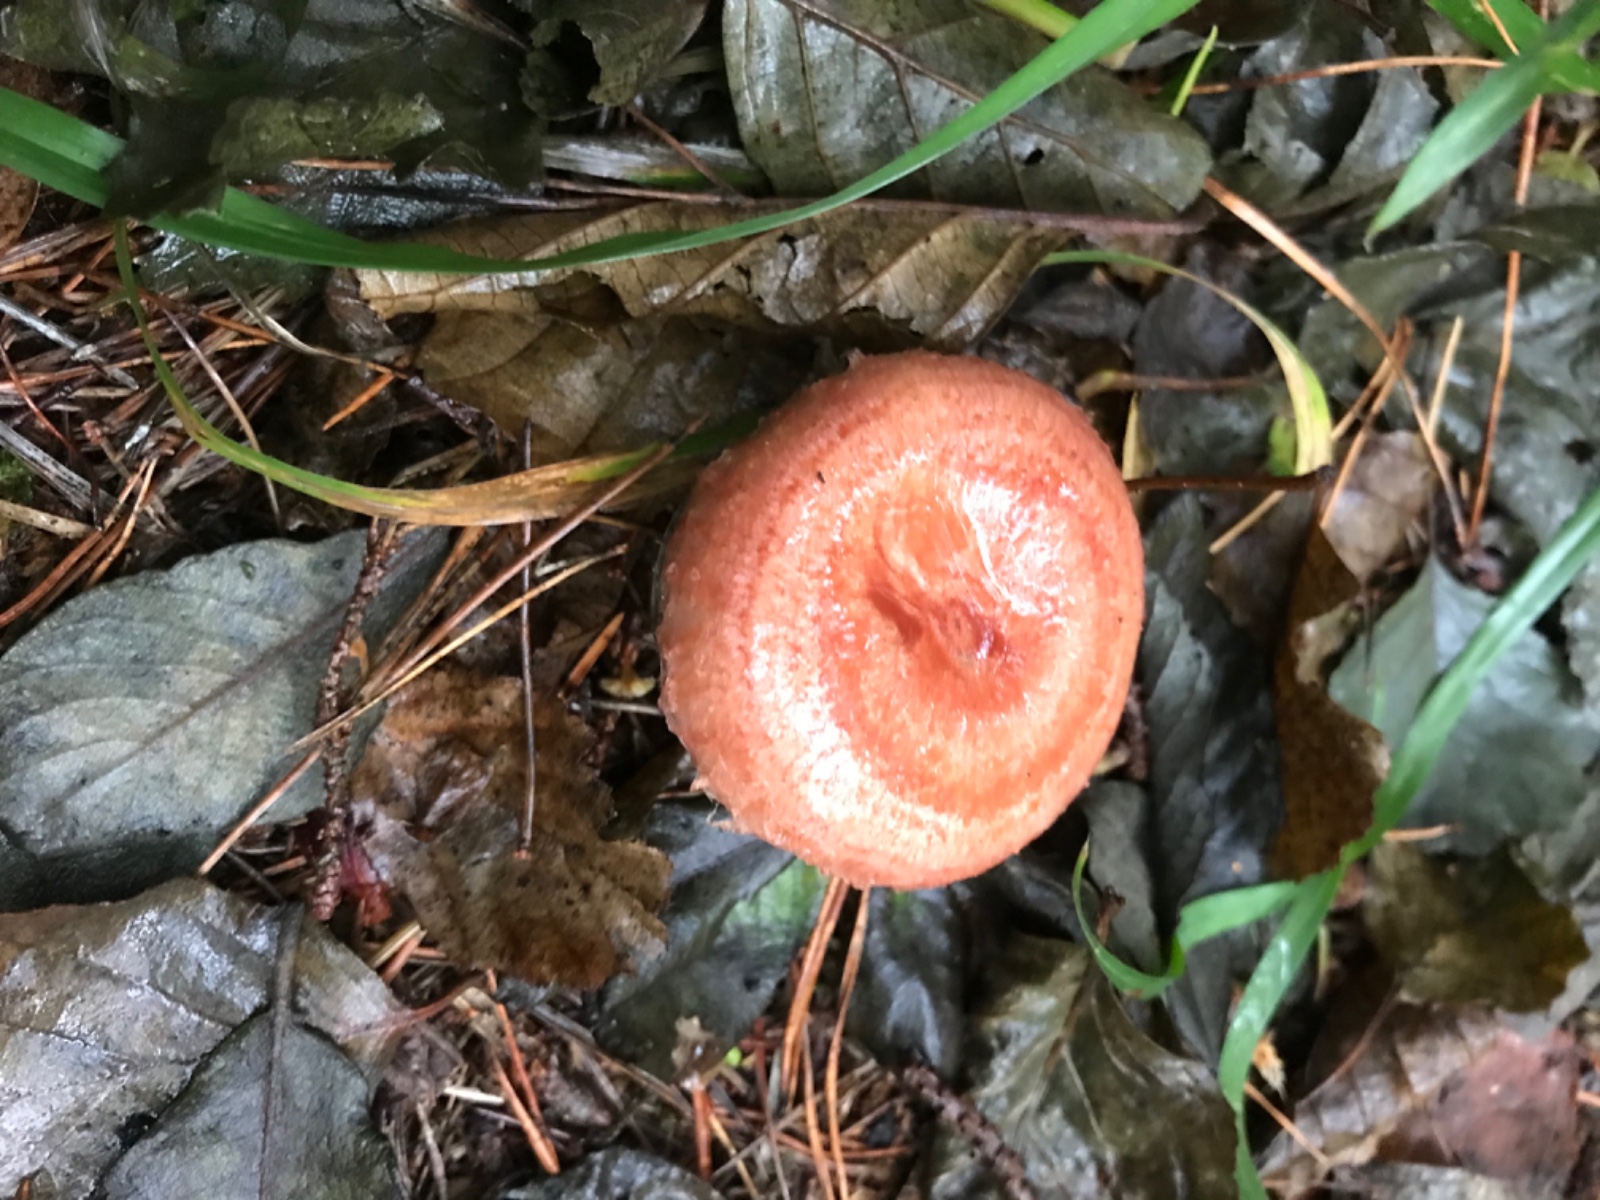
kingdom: Fungi
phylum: Basidiomycota
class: Agaricomycetes
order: Russulales
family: Russulaceae
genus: Lactarius
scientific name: Lactarius torminosus
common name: skægget mælkehat
